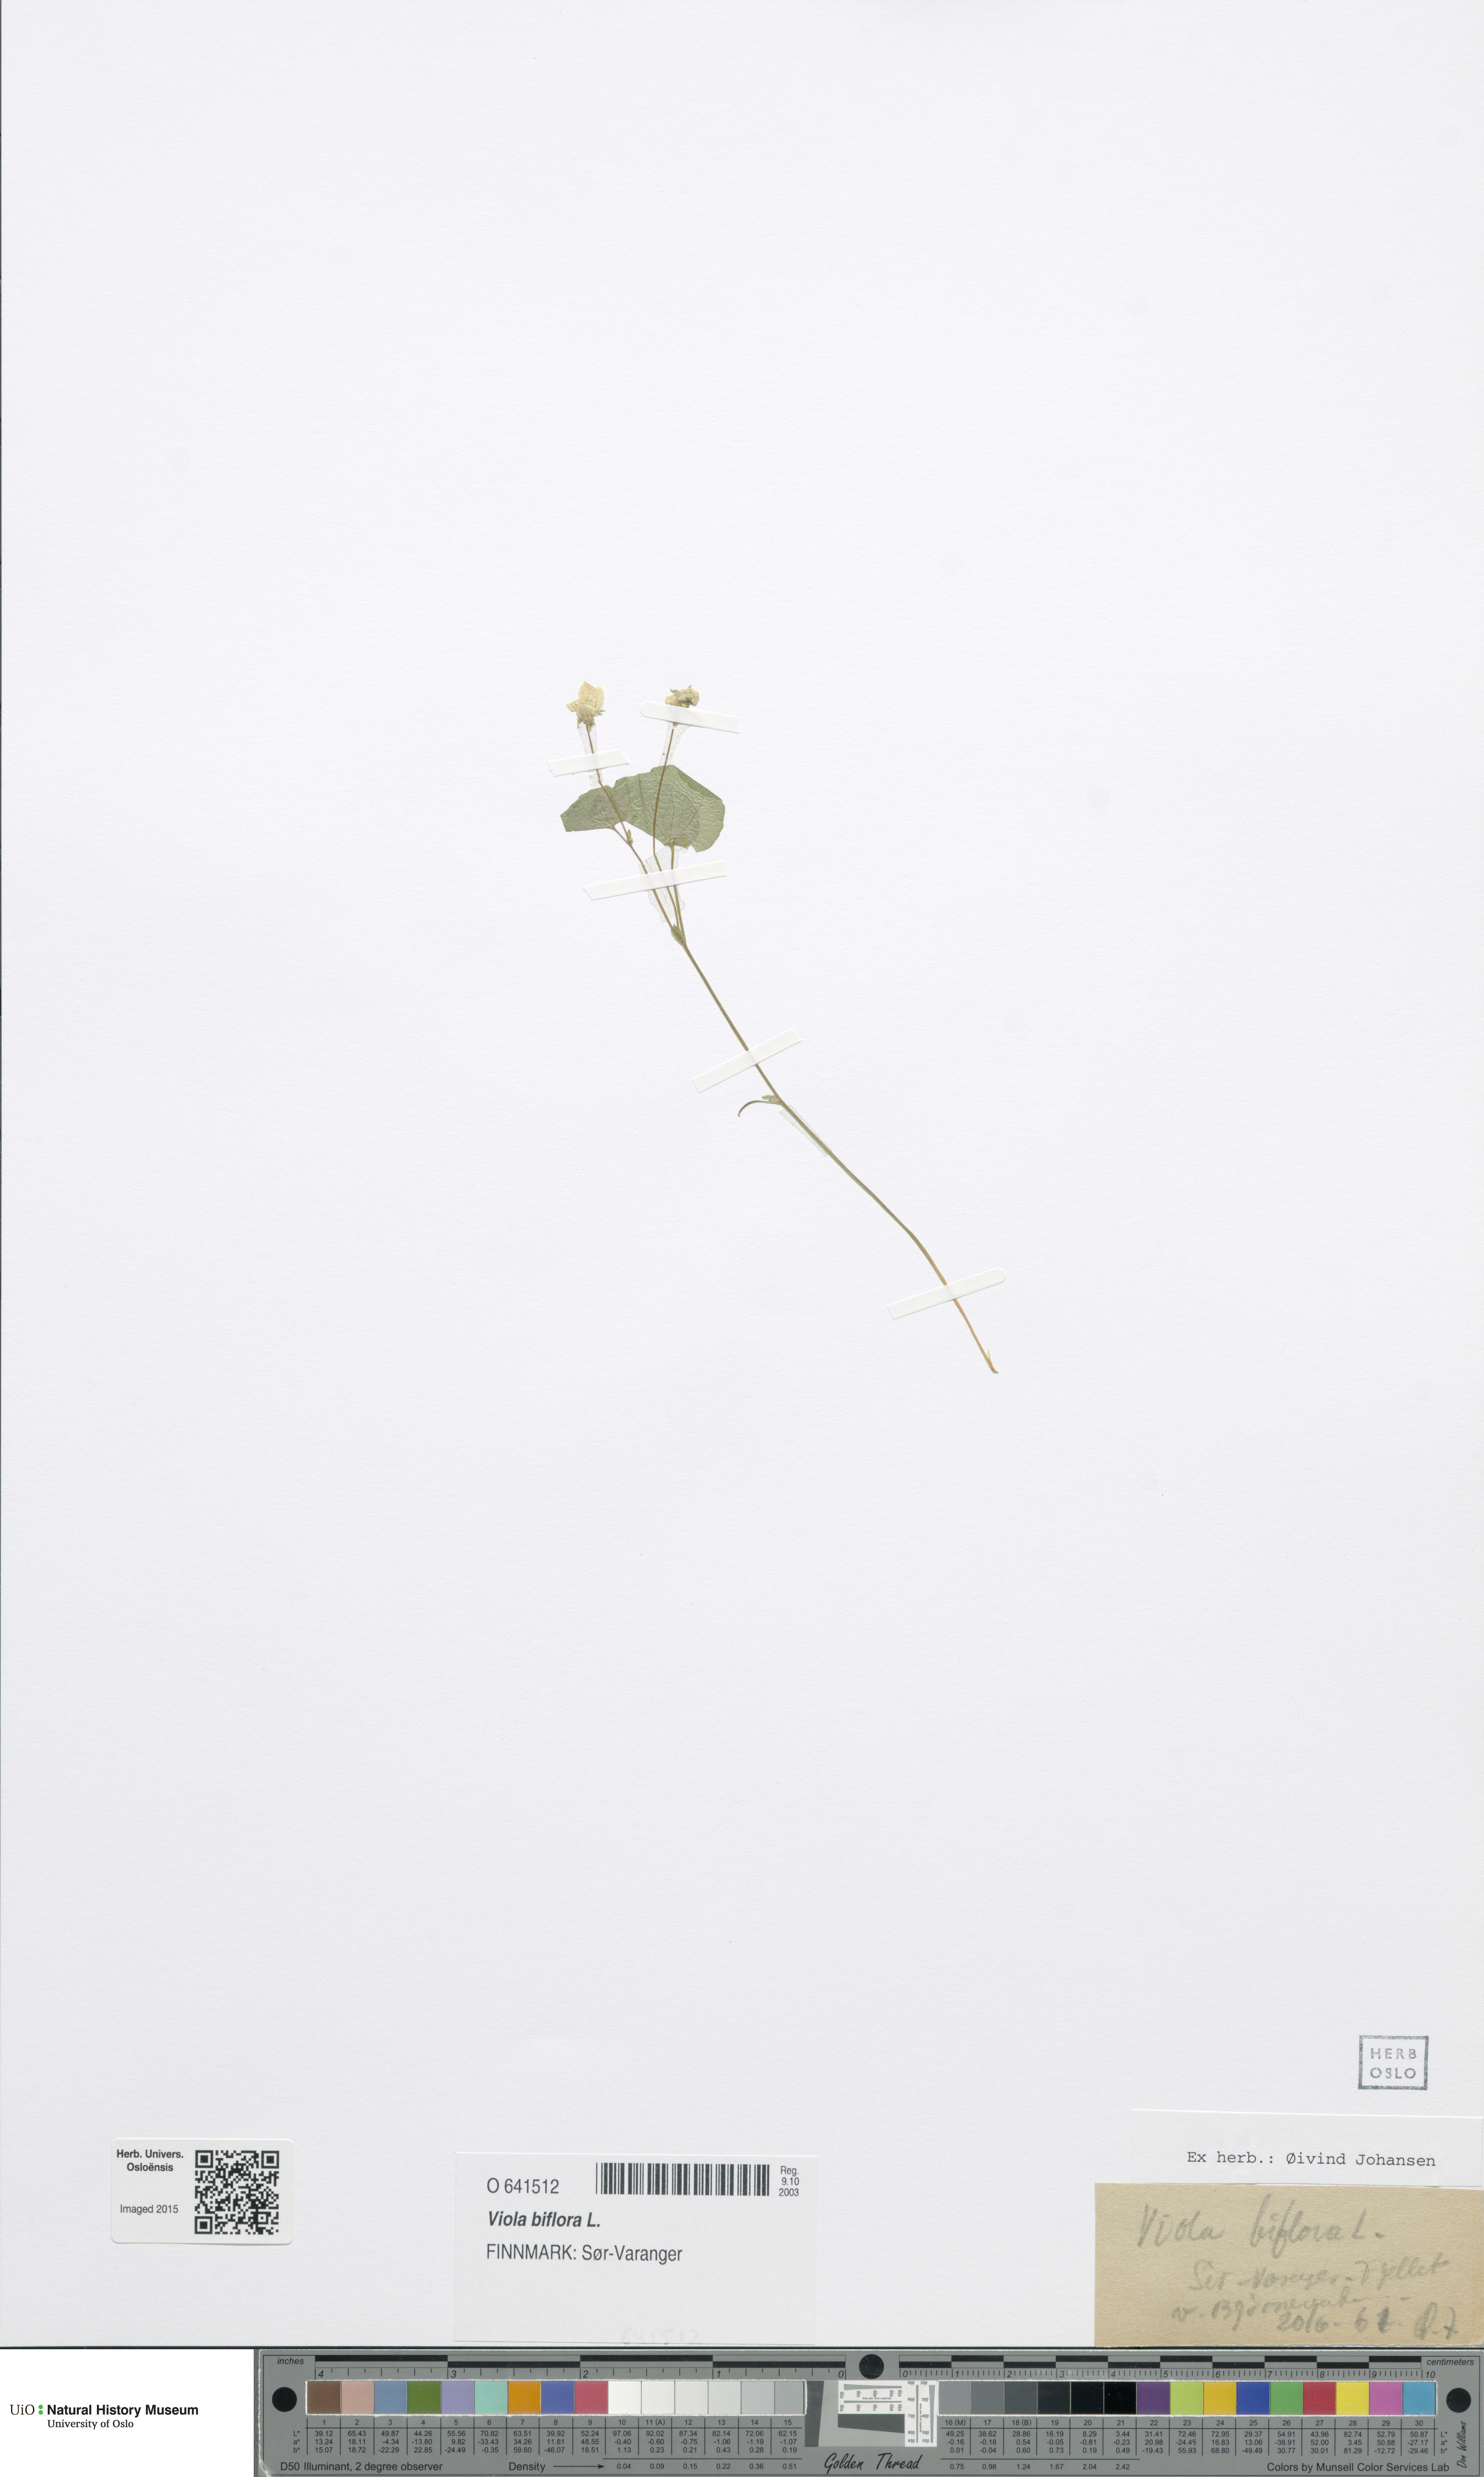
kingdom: Plantae
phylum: Tracheophyta
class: Magnoliopsida
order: Malpighiales
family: Violaceae
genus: Viola
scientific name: Viola biflora
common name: Alpine yellow violet
